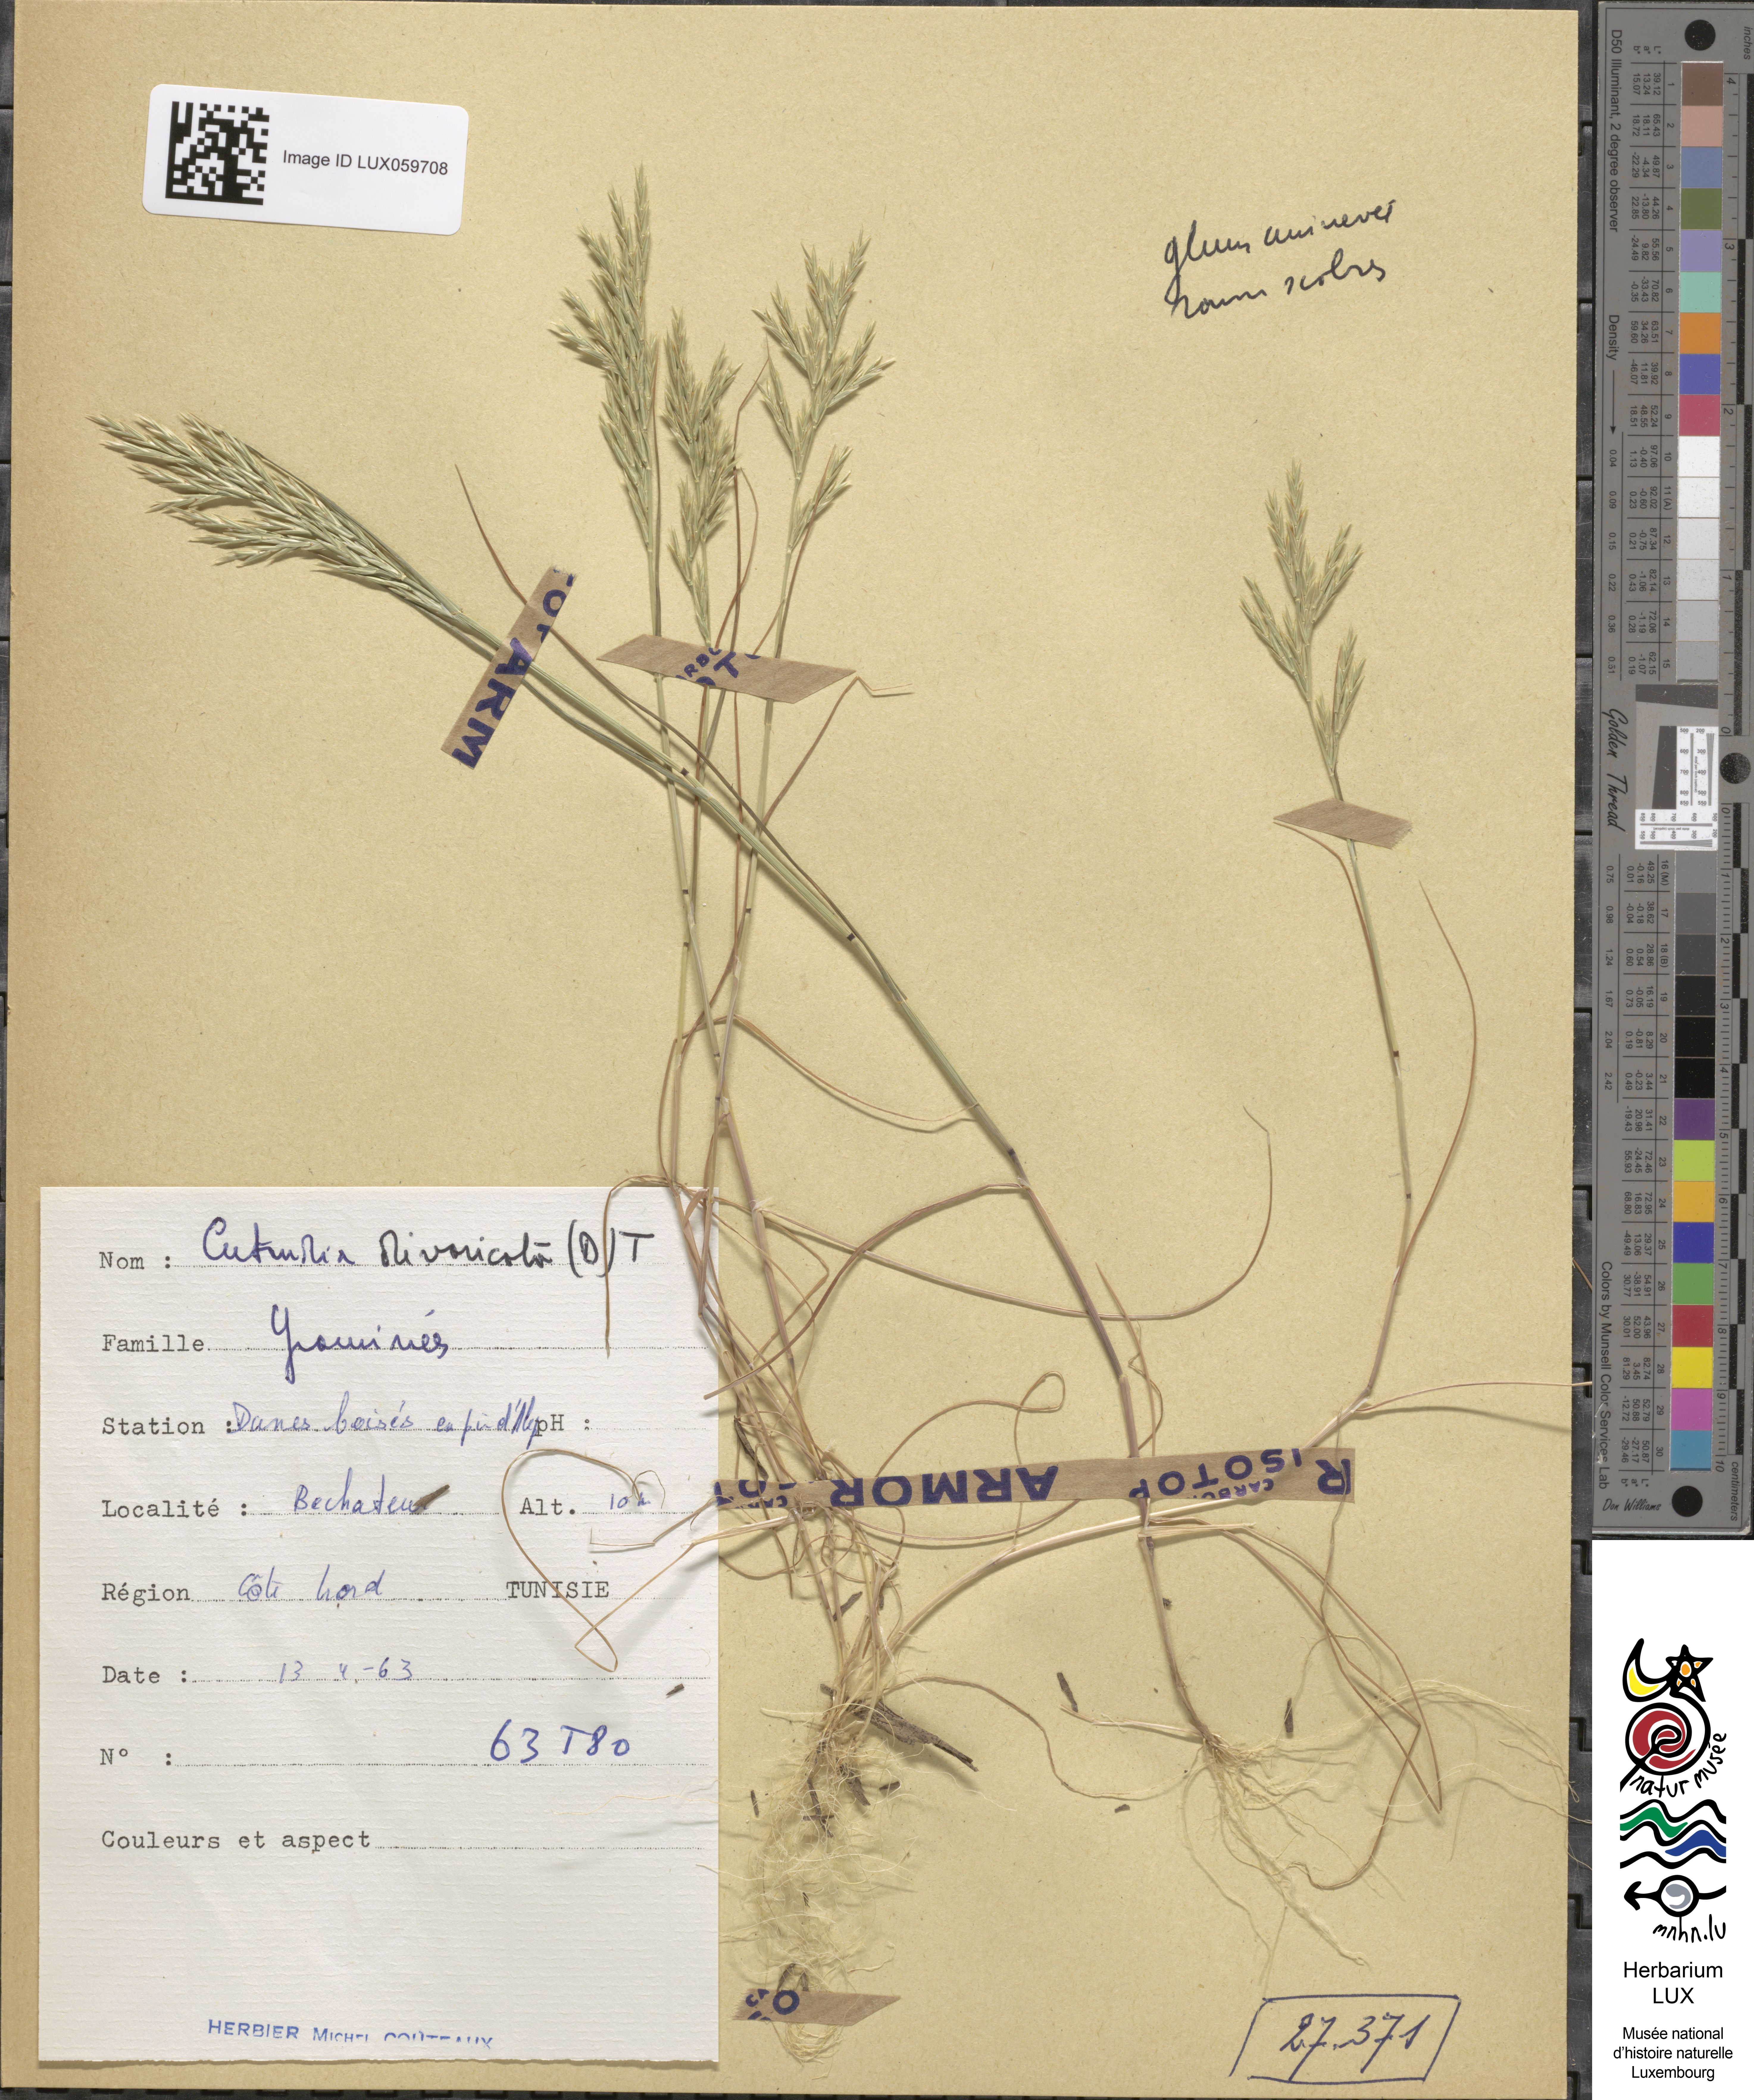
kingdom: Plantae
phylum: Tracheophyta
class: Liliopsida
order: Poales
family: Poaceae
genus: Cutandia
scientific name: Cutandia divaricata
